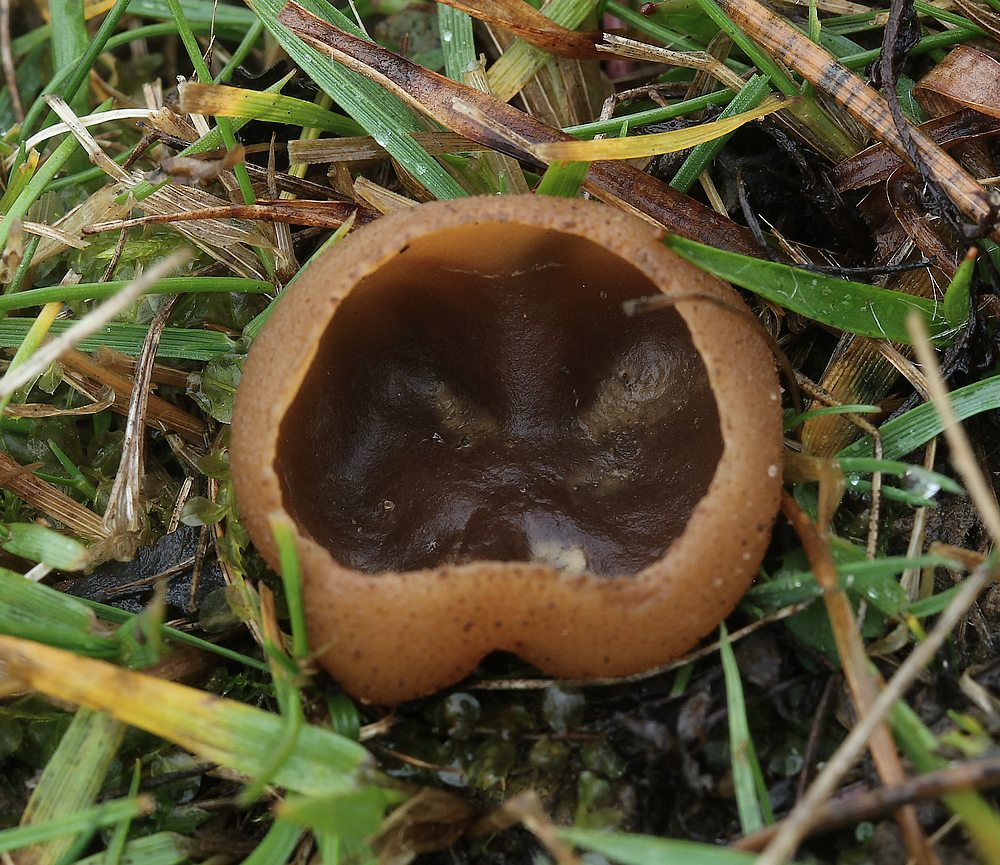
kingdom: Fungi
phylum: Ascomycota
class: Pezizomycetes
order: Pezizales
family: Pezizaceae
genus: Peziza
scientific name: Peziza
